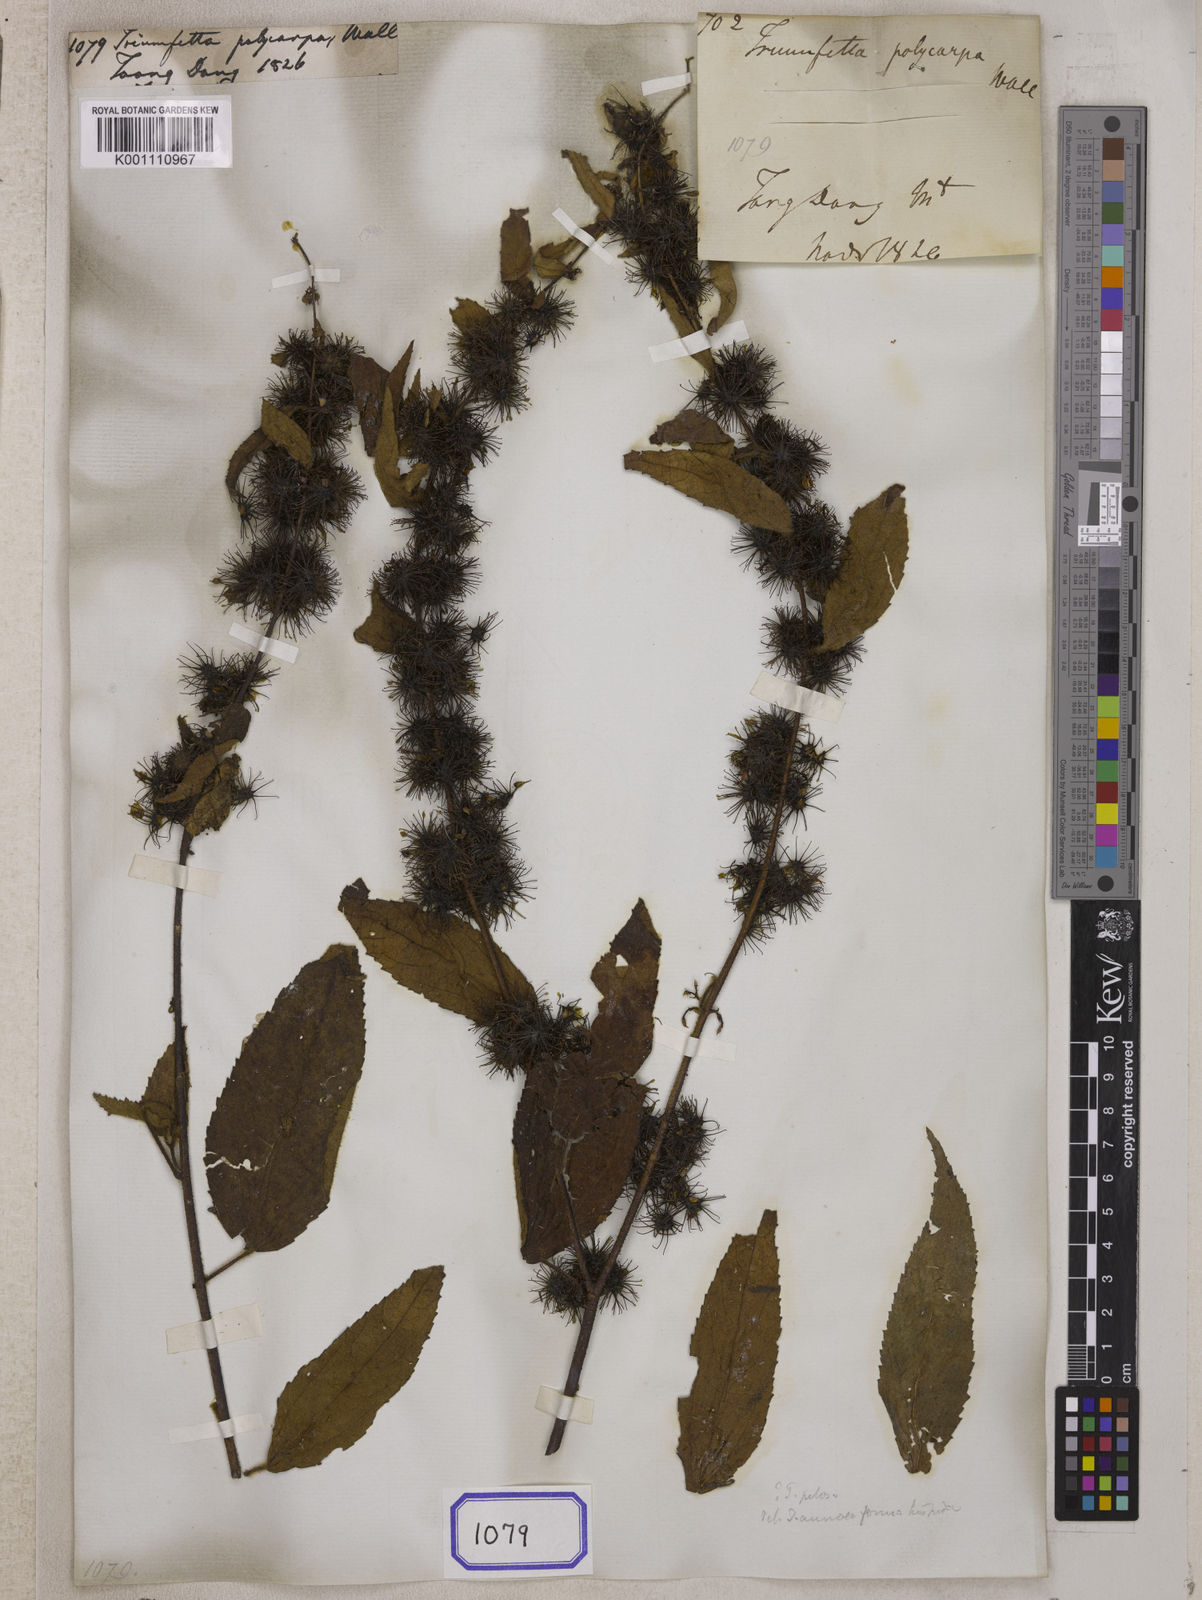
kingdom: Plantae
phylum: Tracheophyta
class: Magnoliopsida
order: Malvales
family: Malvaceae
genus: Triumfetta
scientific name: Triumfetta pilosa
